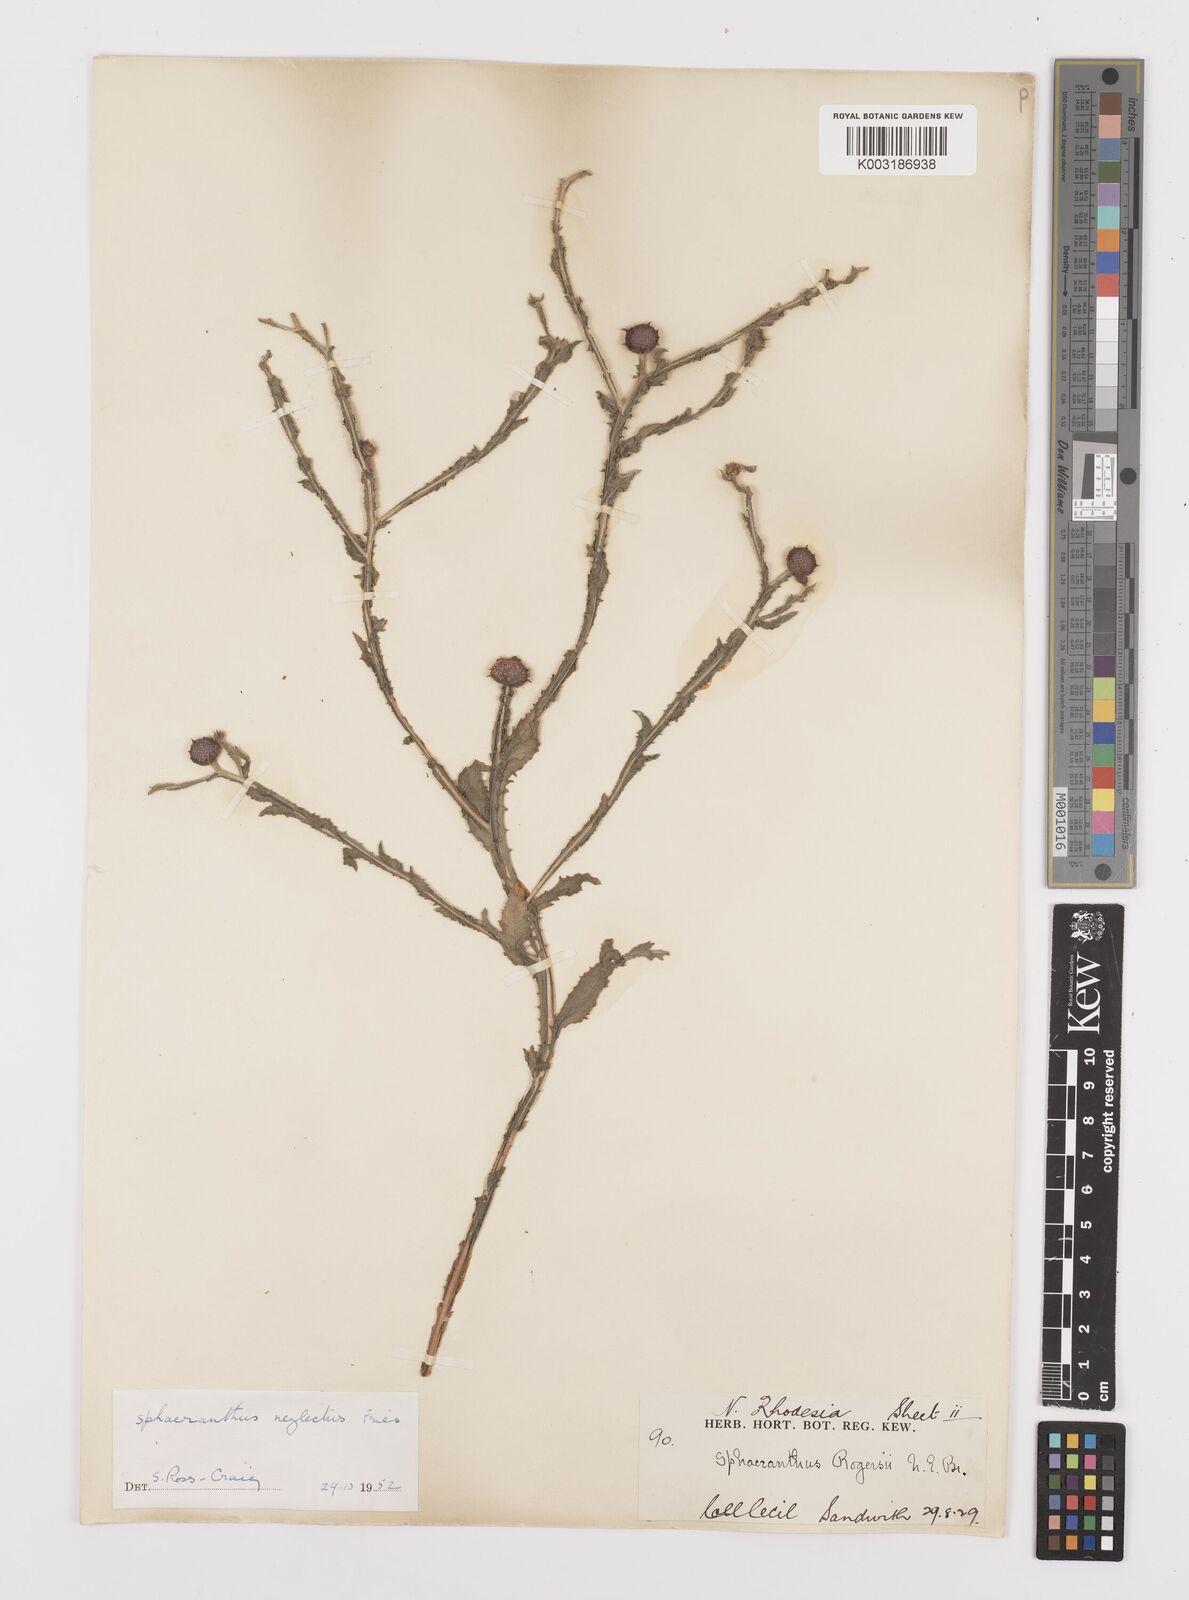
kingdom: Plantae
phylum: Tracheophyta
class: Magnoliopsida
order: Asterales
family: Asteraceae
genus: Sphaeranthus
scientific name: Sphaeranthus neglectus
